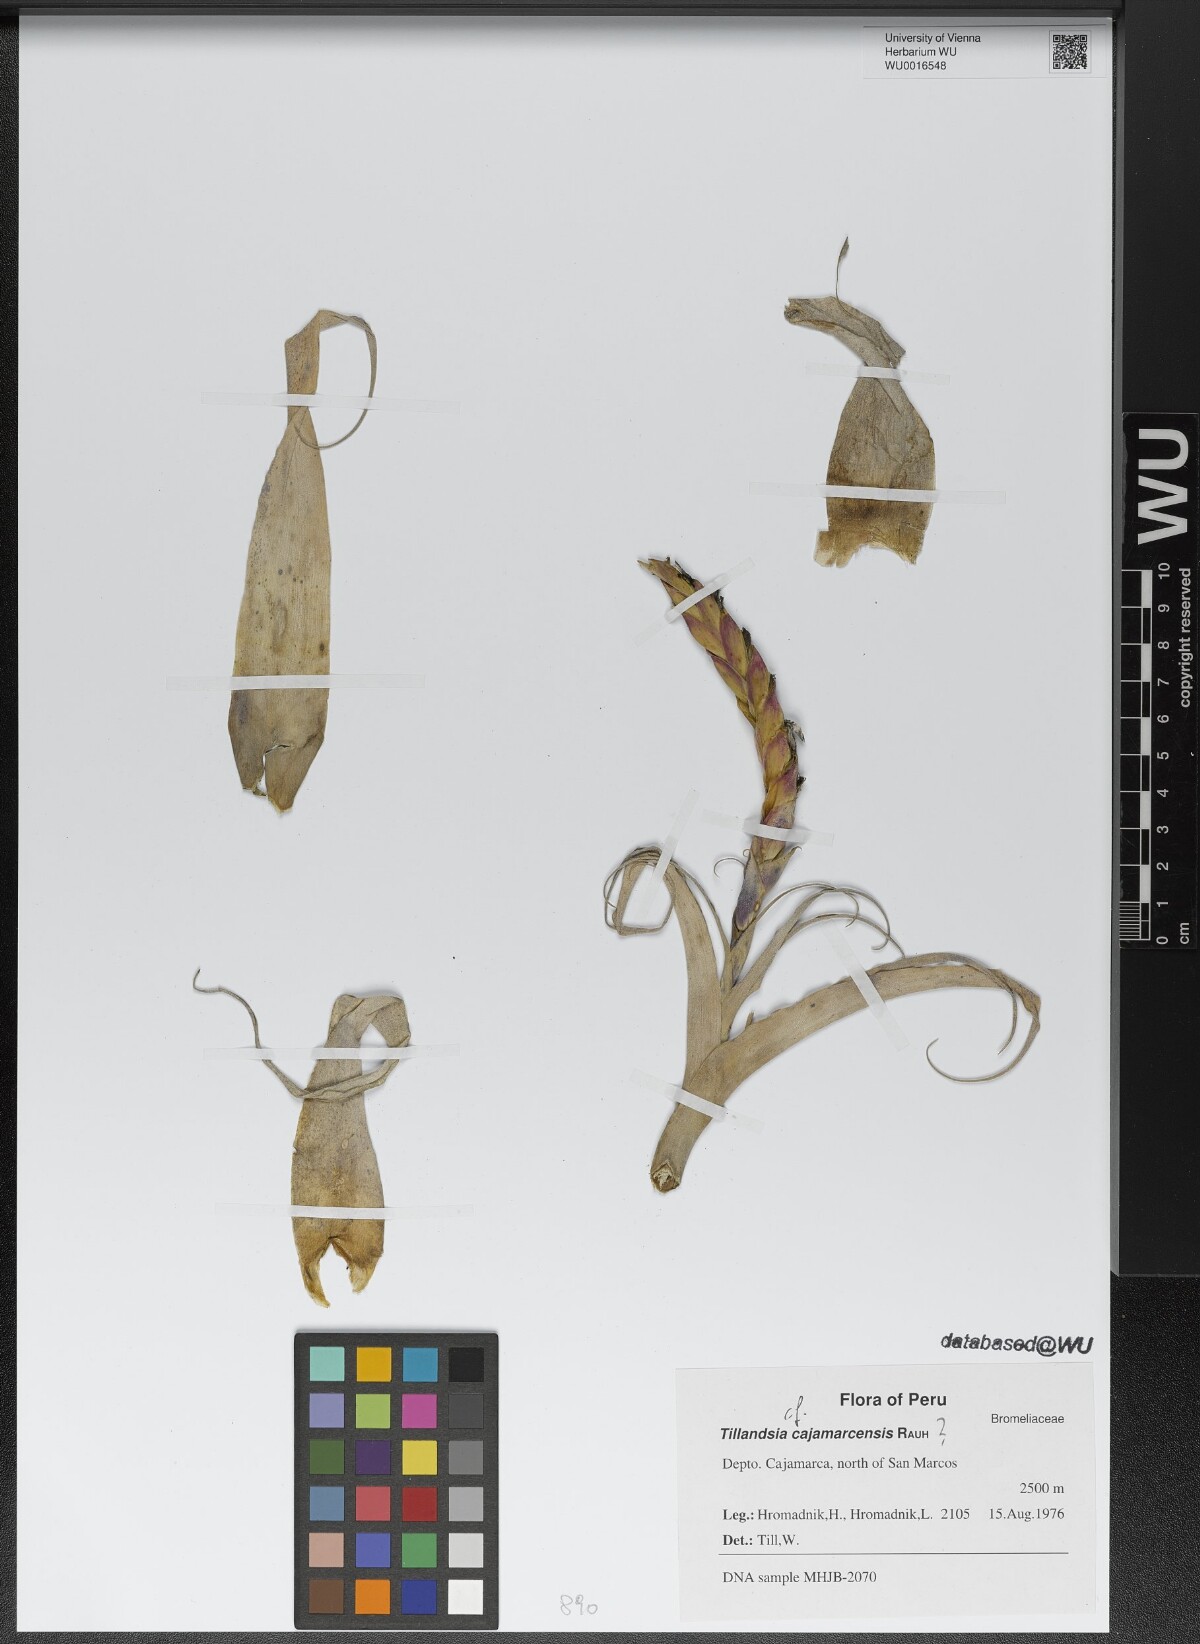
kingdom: Plantae
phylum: Tracheophyta
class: Liliopsida
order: Poales
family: Bromeliaceae
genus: Tillandsia
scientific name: Tillandsia cajamarcensis
